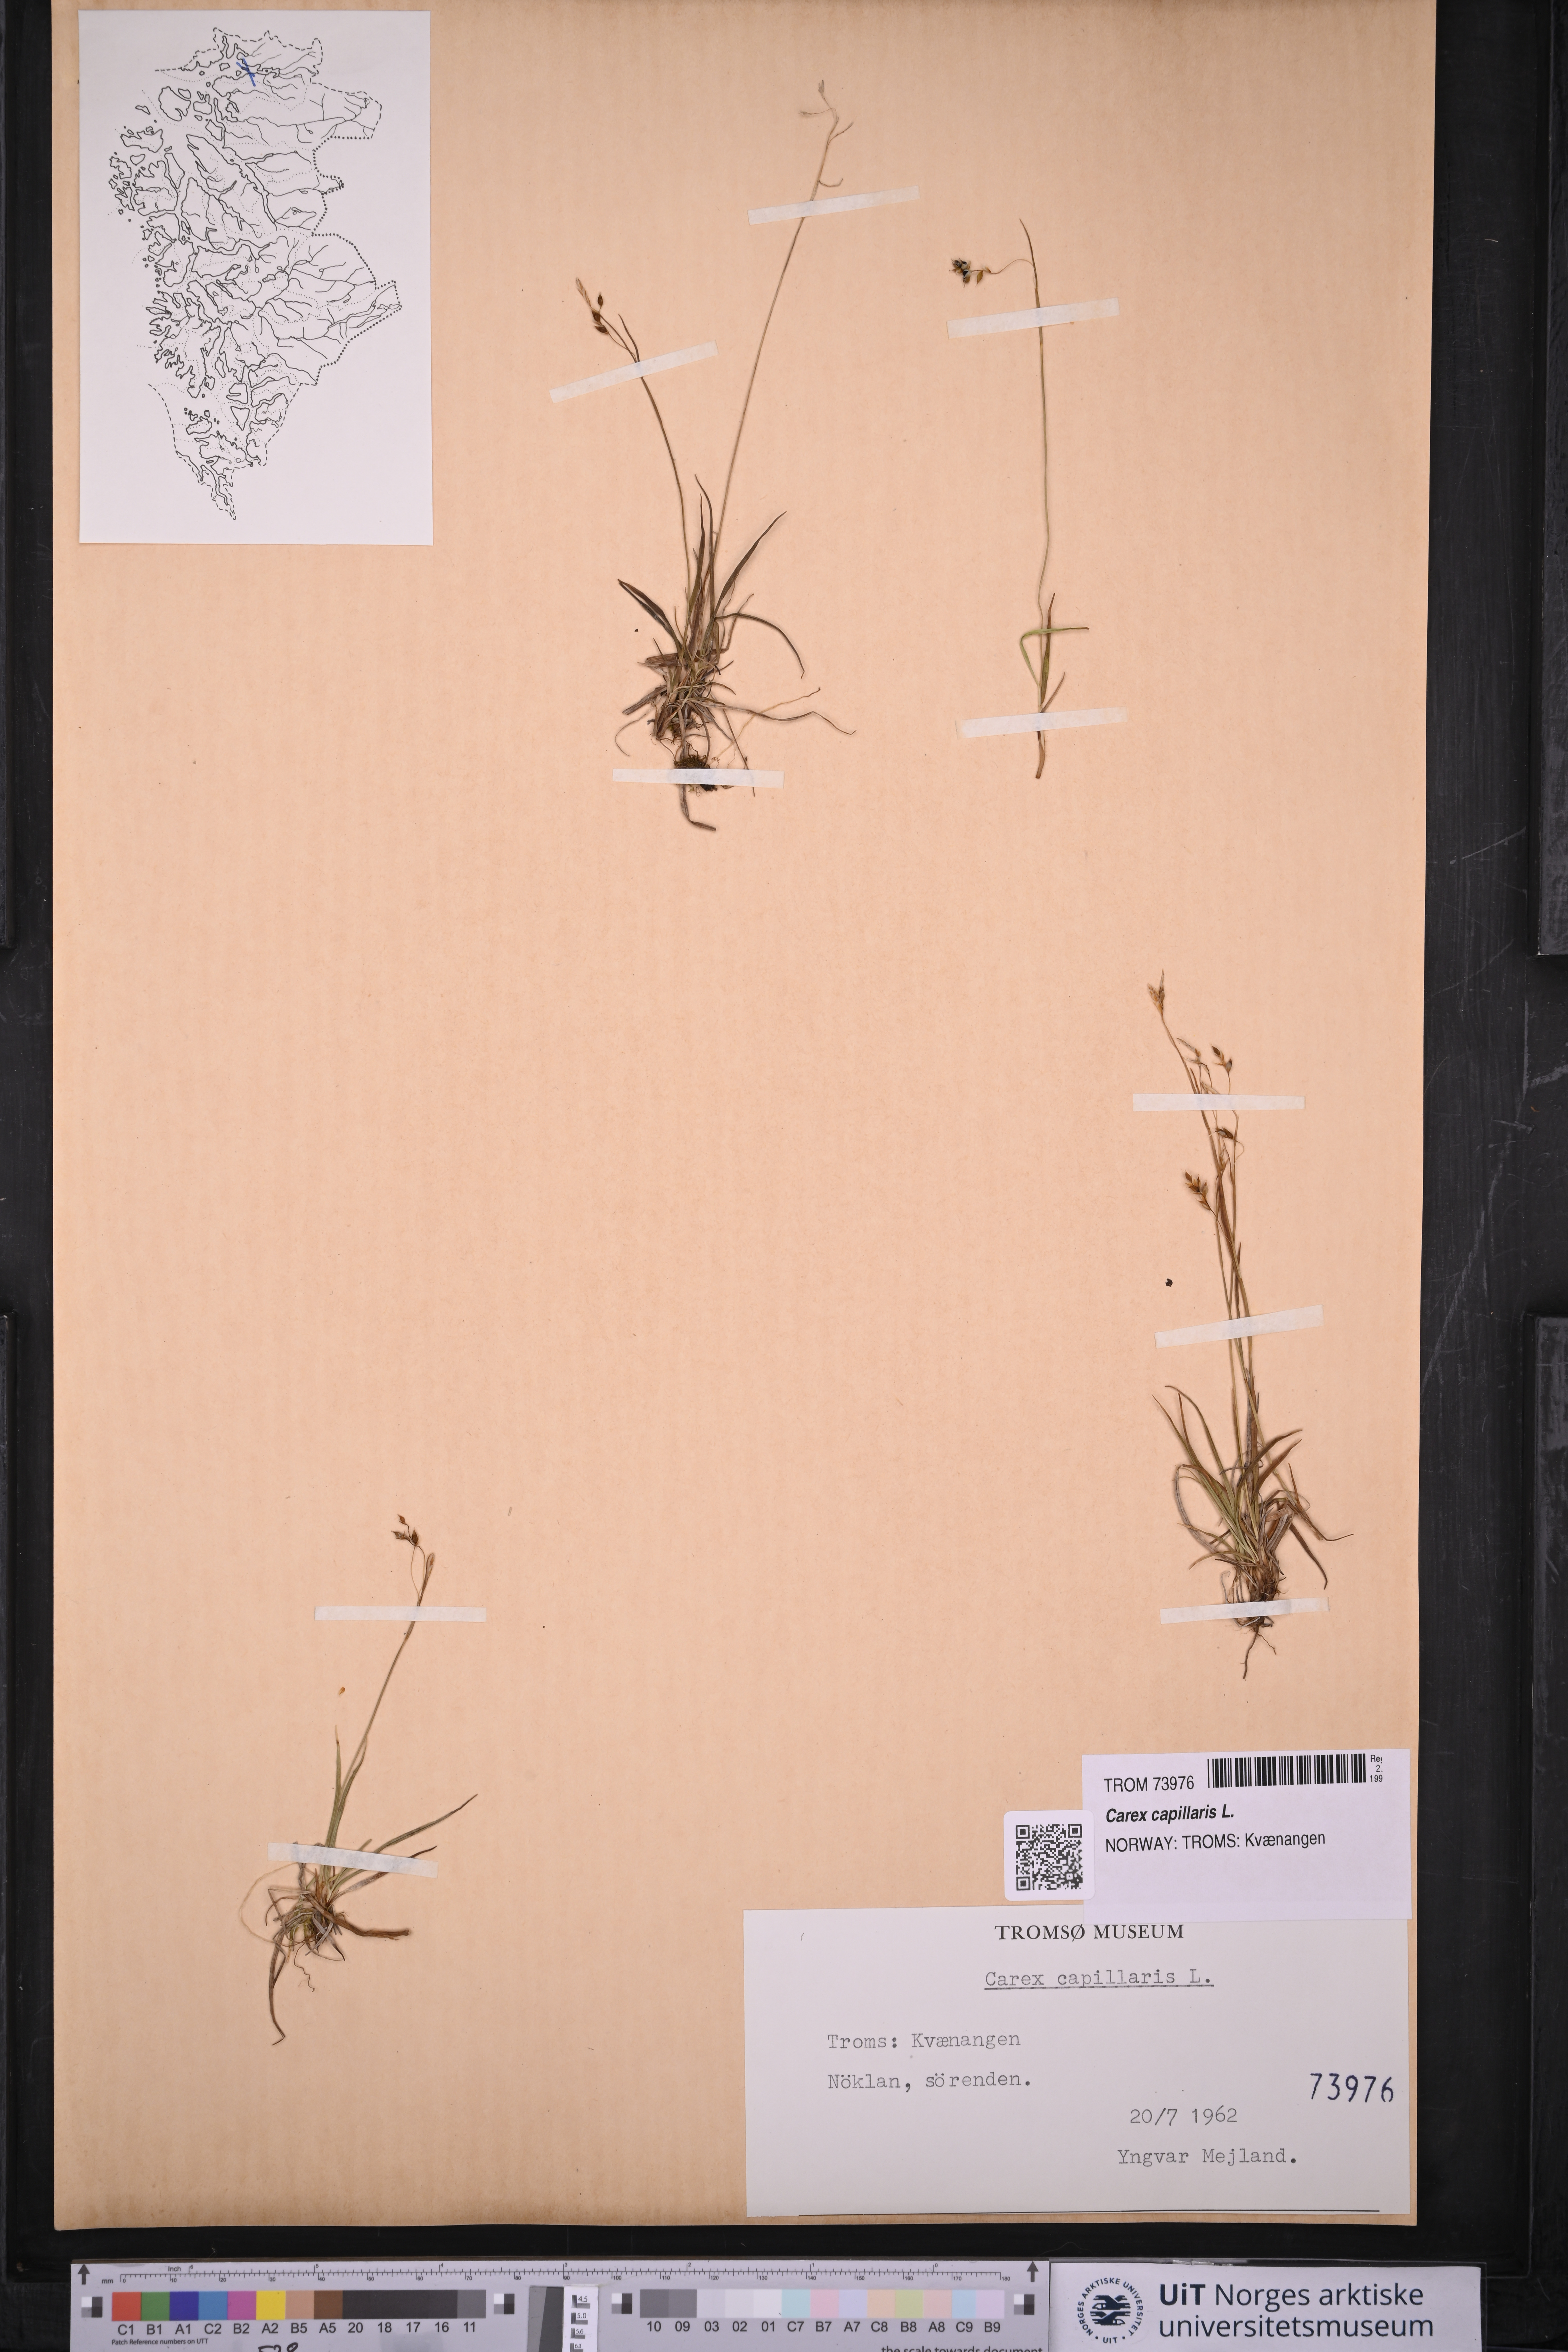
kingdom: Plantae
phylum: Tracheophyta
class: Liliopsida
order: Poales
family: Cyperaceae
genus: Carex
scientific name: Carex capillaris
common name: Hair sedge
